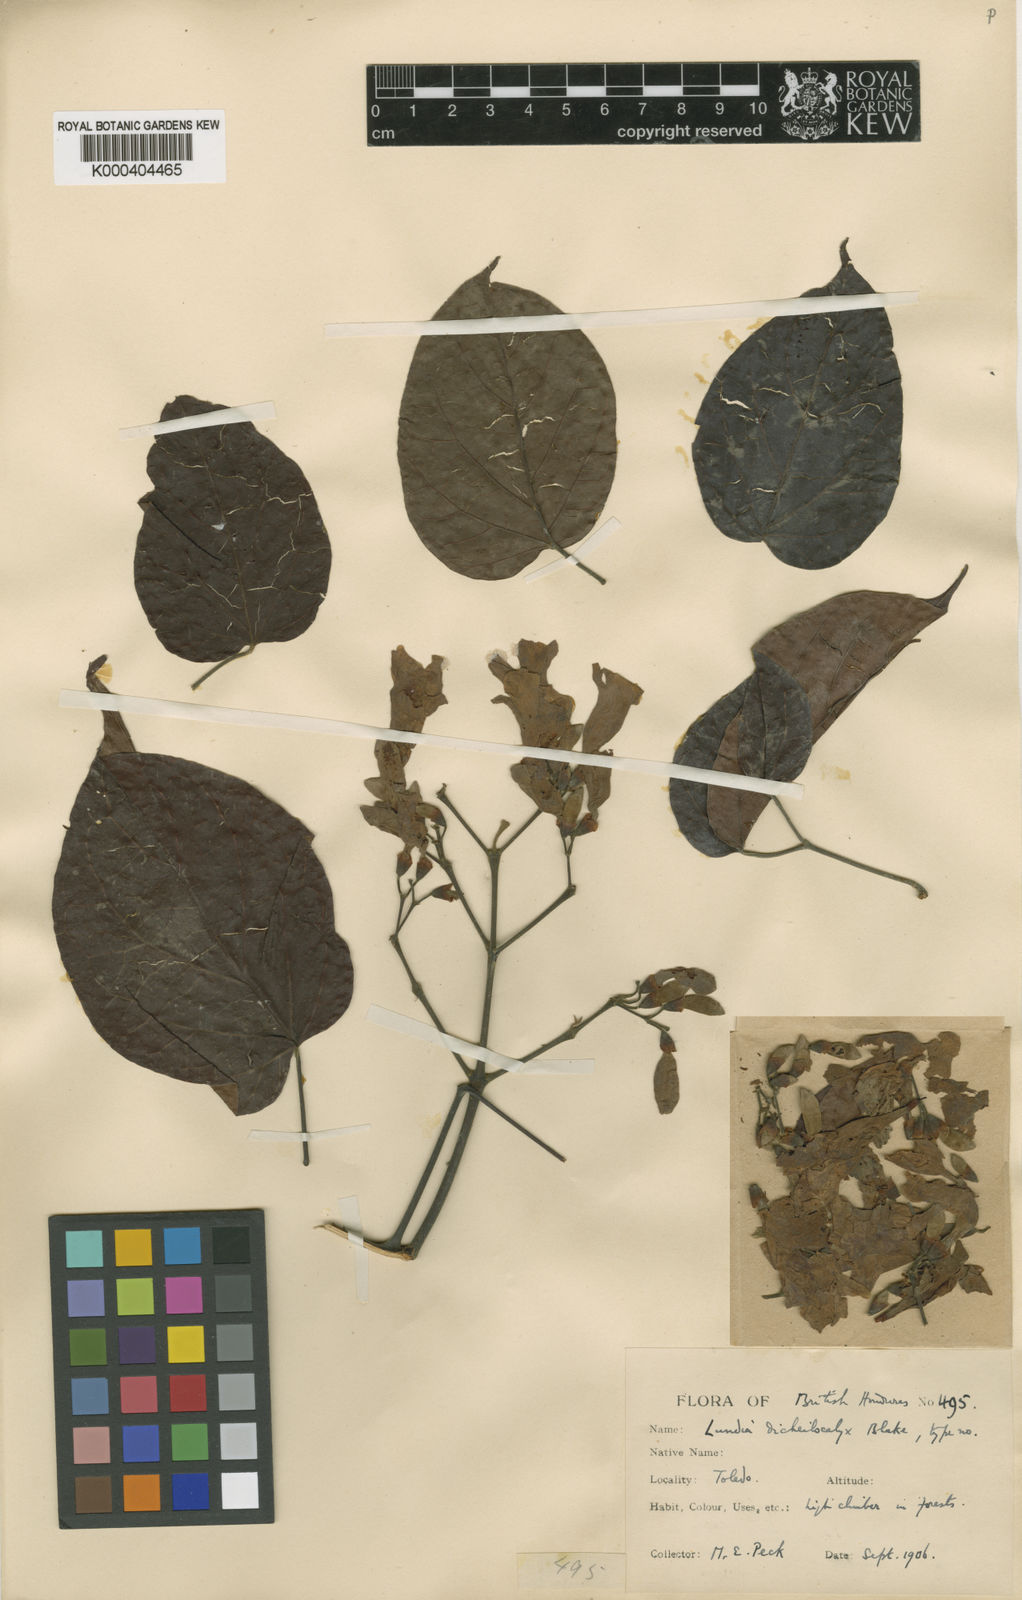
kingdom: Plantae
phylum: Tracheophyta
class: Magnoliopsida
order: Lamiales
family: Bignoniaceae
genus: Lundia
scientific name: Lundia
